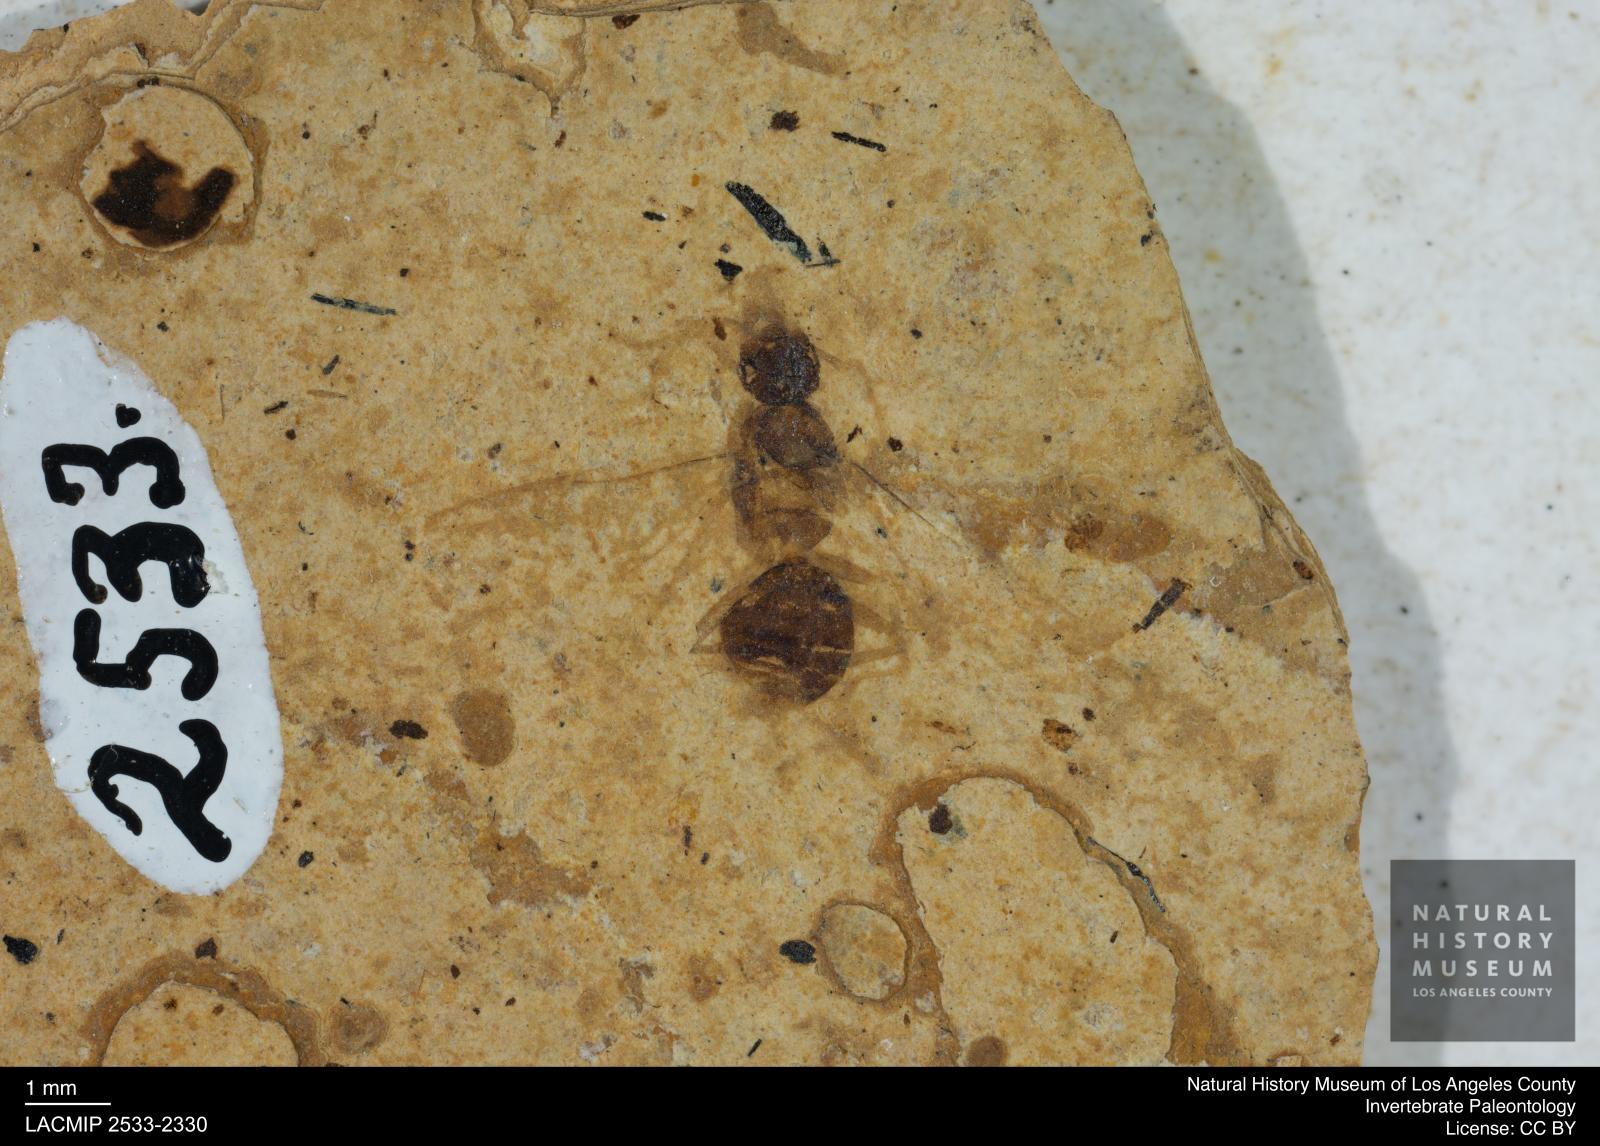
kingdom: Animalia
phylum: Arthropoda
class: Insecta
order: Hymenoptera
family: Formicidae
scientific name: Formicidae
